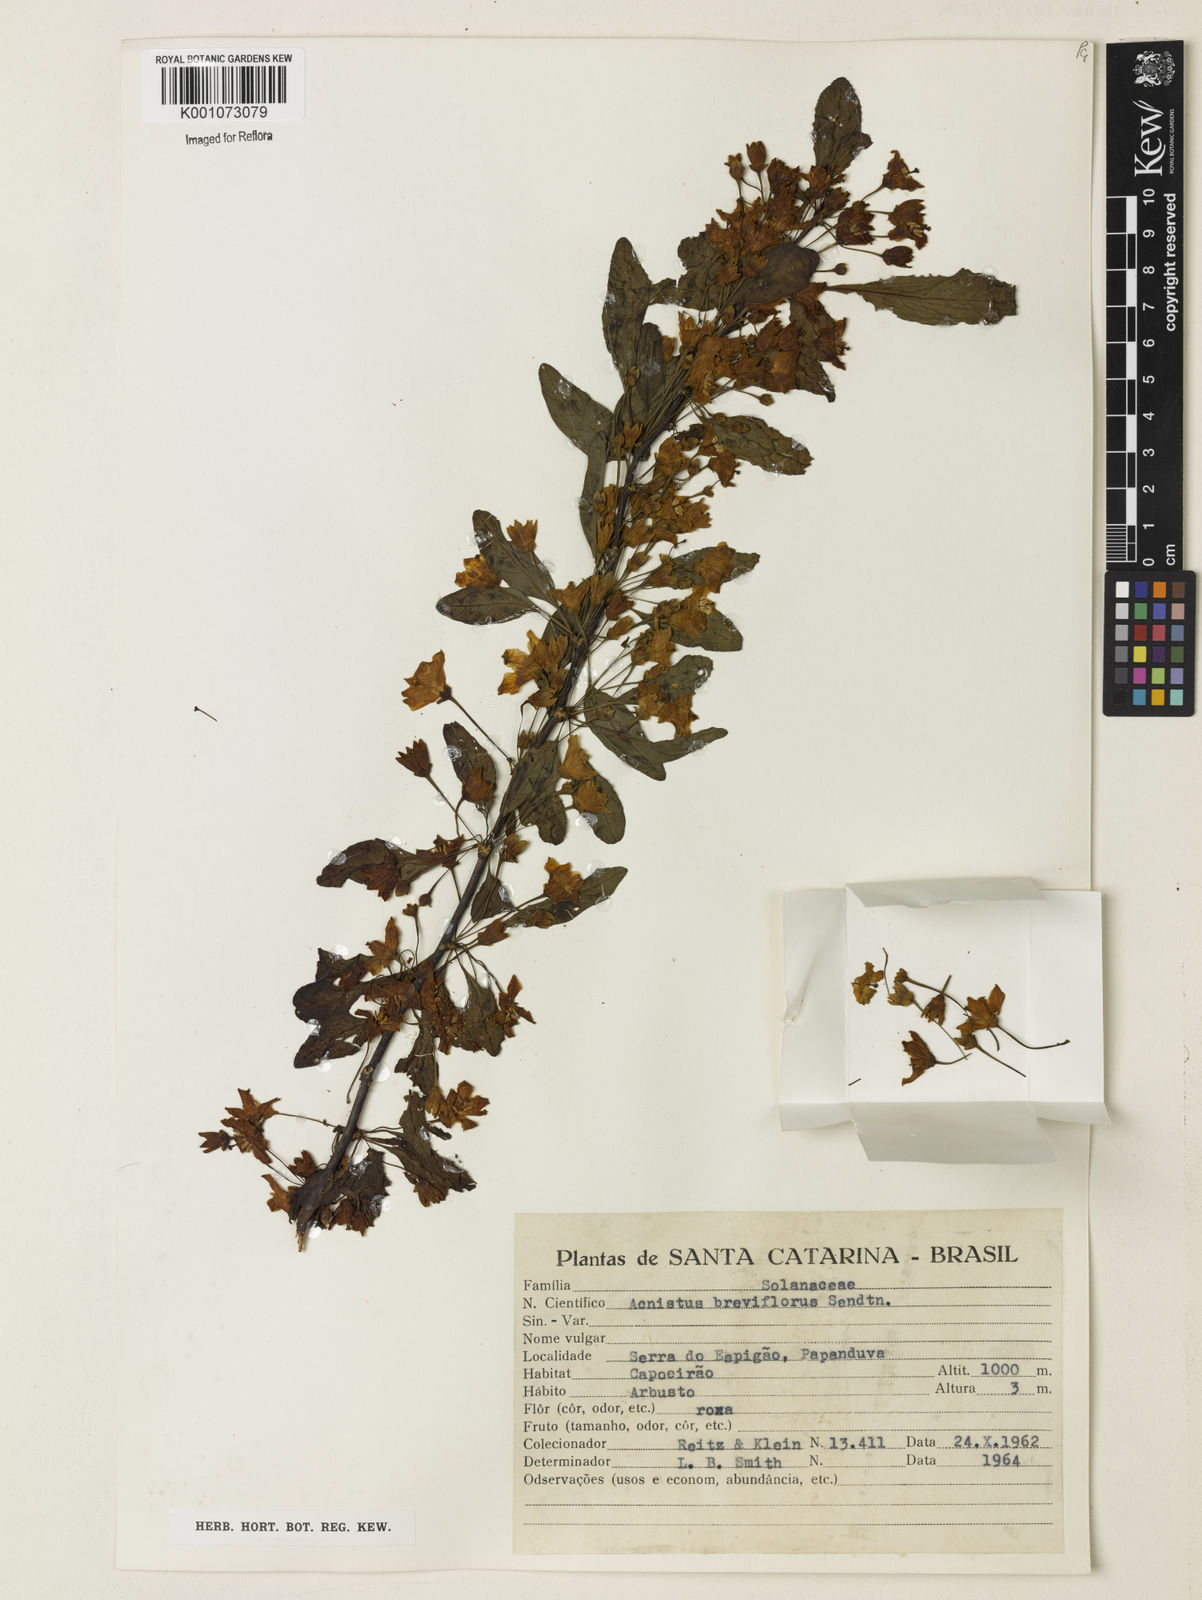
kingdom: Plantae
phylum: Tracheophyta
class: Magnoliopsida
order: Solanales
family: Solanaceae
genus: Vassobia
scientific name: Vassobia breviflora
